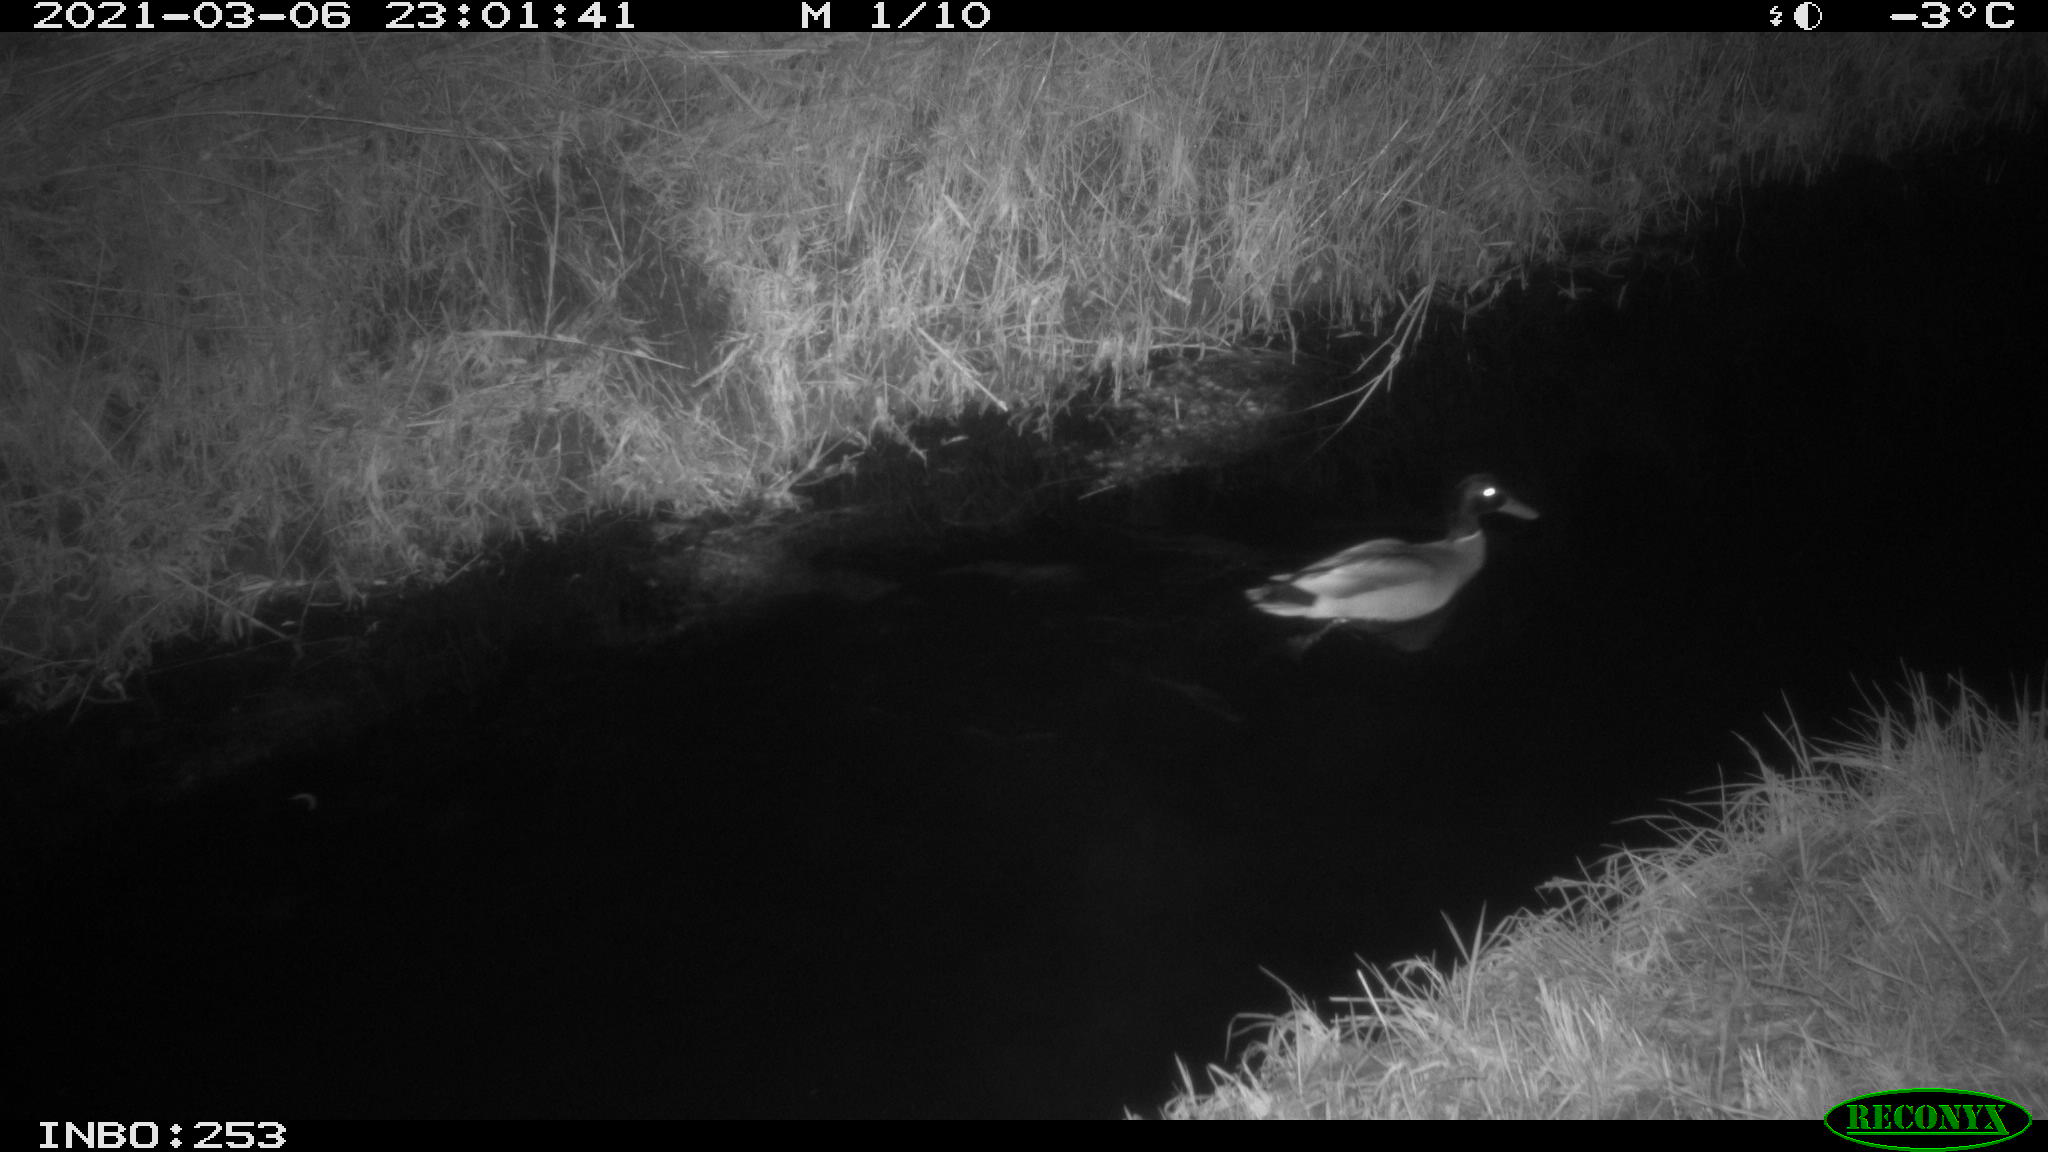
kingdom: Animalia
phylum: Chordata
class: Aves
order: Anseriformes
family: Anatidae
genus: Anas
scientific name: Anas platyrhynchos
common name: Mallard
